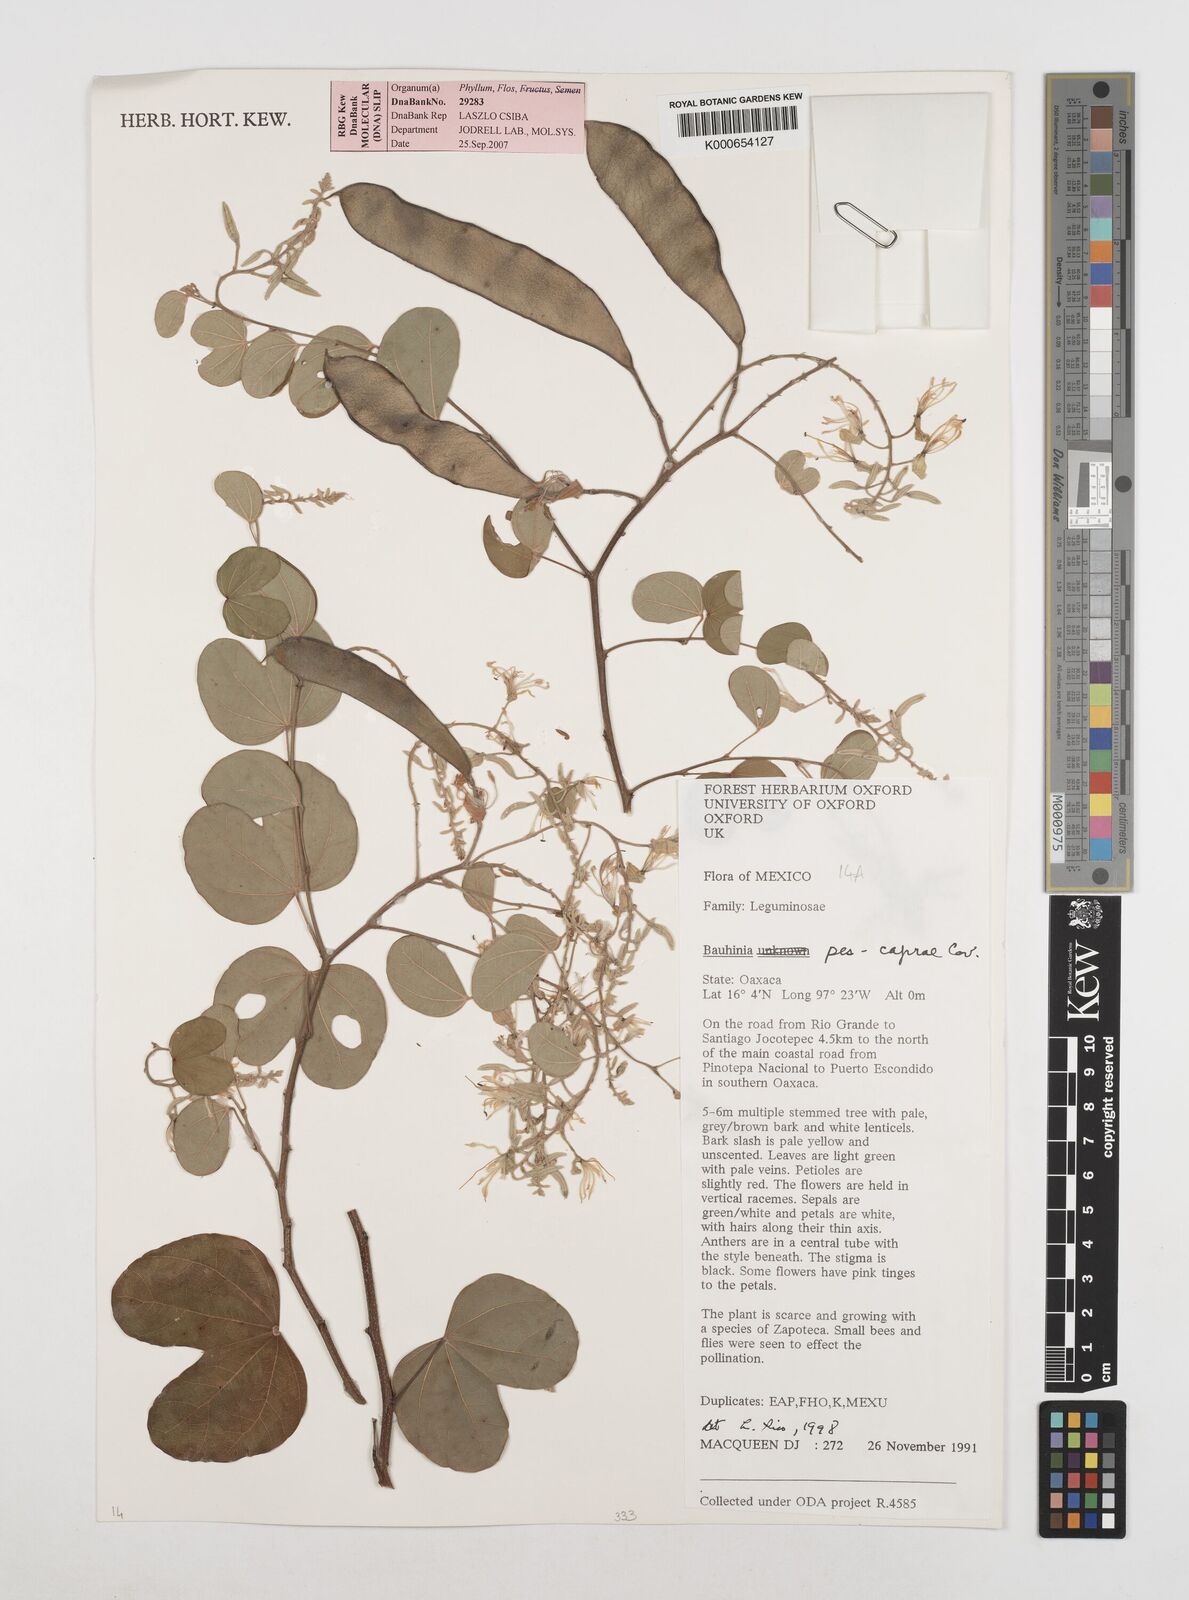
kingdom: Plantae
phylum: Tracheophyta
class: Magnoliopsida
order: Fabales
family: Fabaceae
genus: Bauhinia
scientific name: Bauhinia pes-caprae
